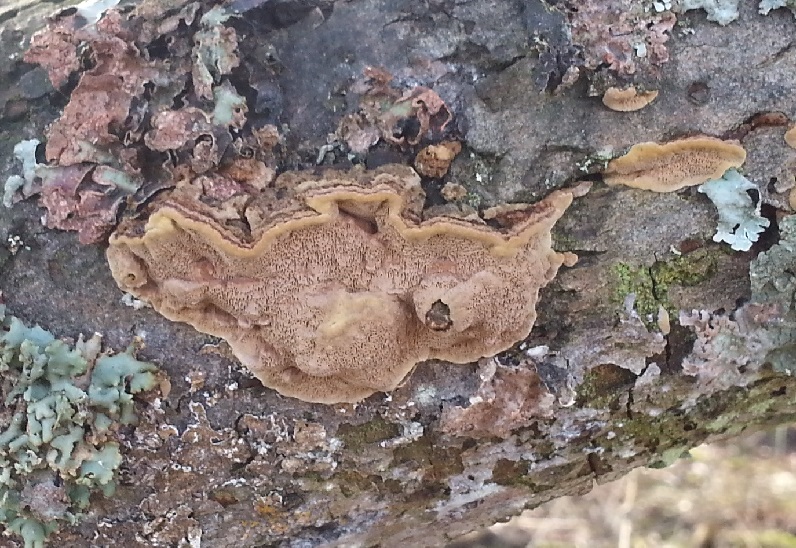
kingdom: Fungi
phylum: Basidiomycota
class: Agaricomycetes
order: Hymenochaetales
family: Hymenochaetaceae
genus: Phellinopsis
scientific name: Phellinopsis conchata
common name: pile-ildporesvamp
